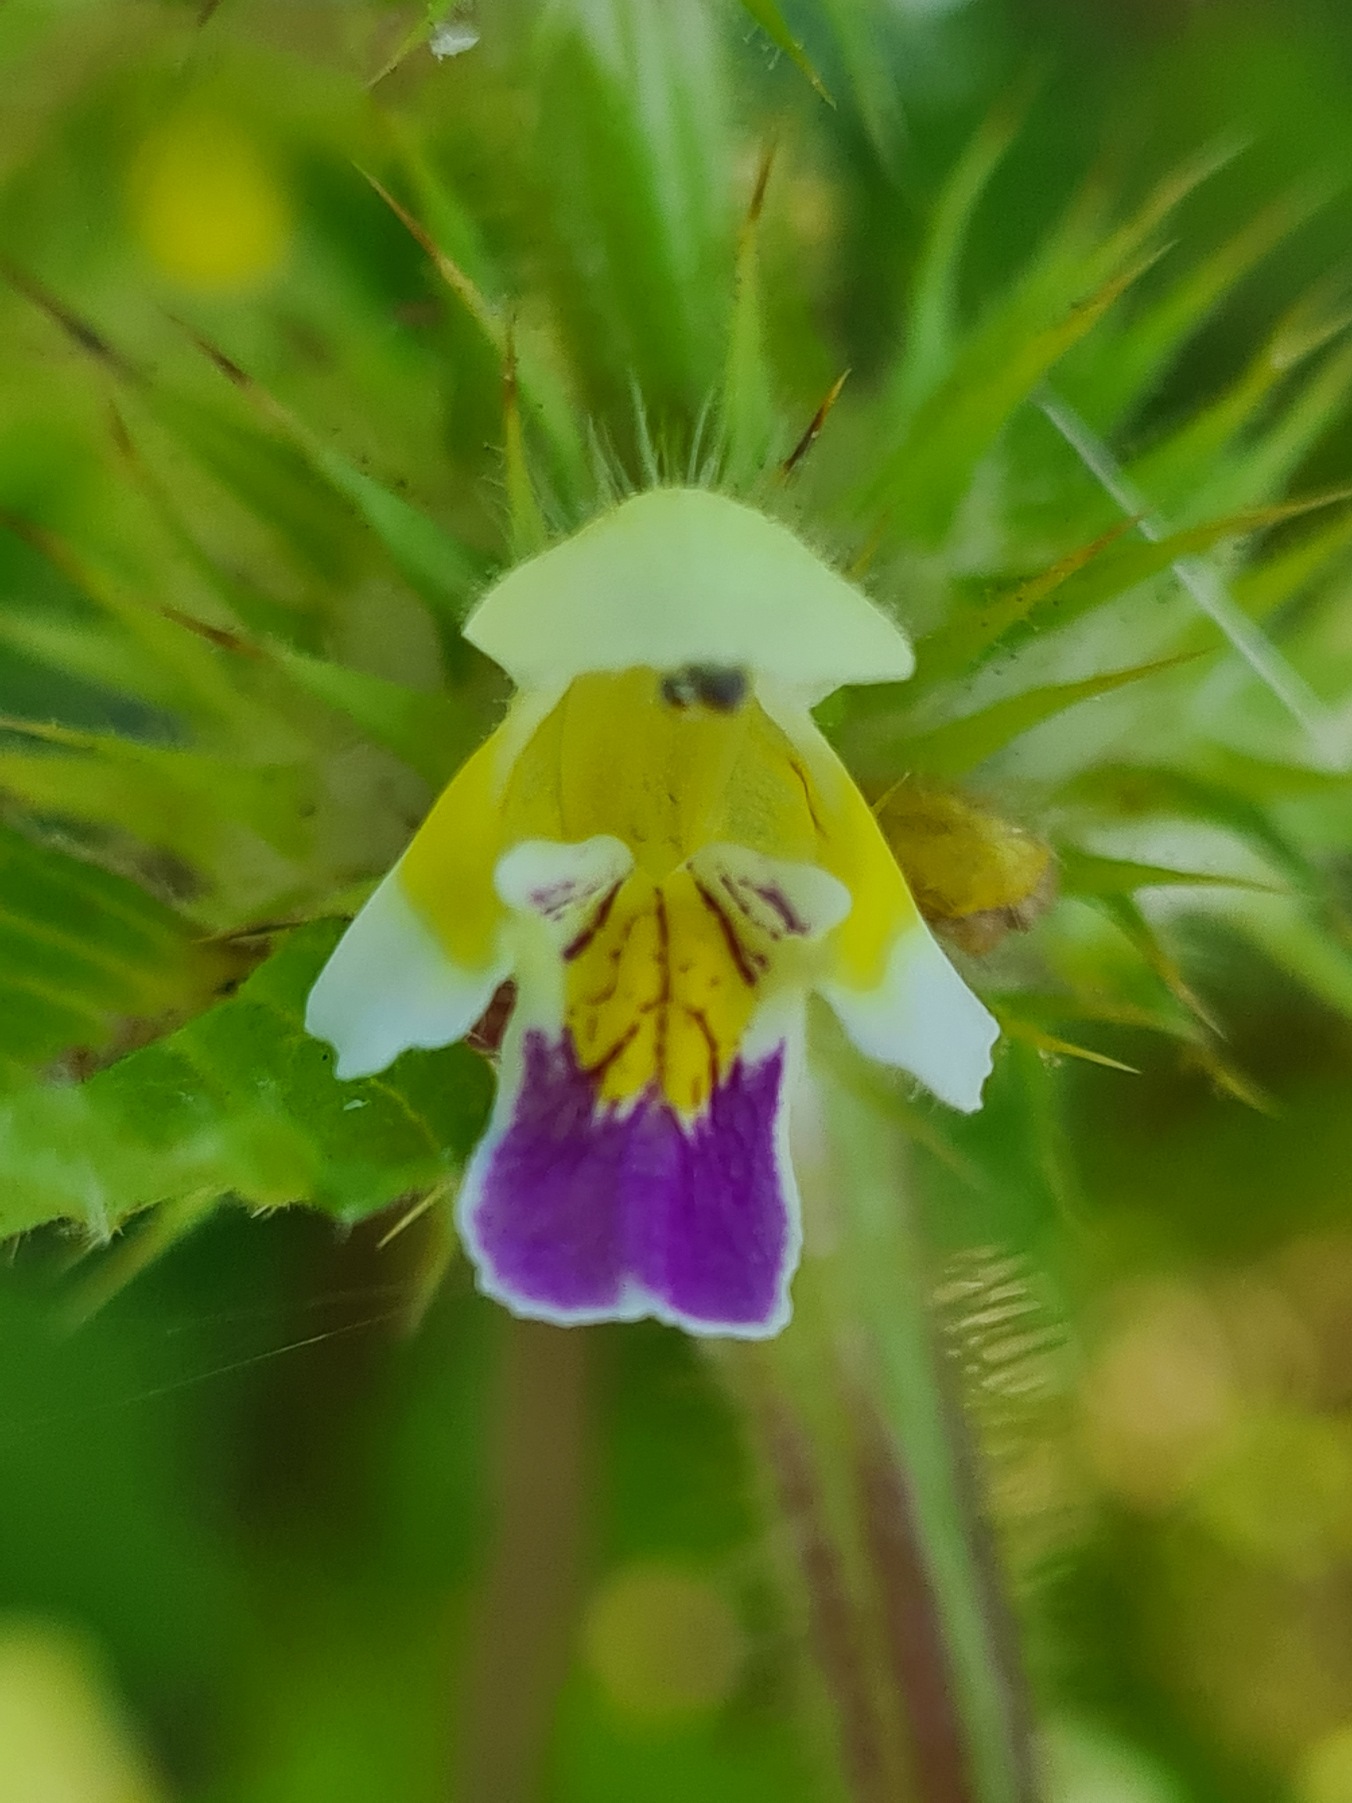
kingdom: Plantae
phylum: Tracheophyta
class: Magnoliopsida
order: Lamiales
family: Lamiaceae
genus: Galeopsis
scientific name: Galeopsis speciosa
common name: Hamp-hanekro
